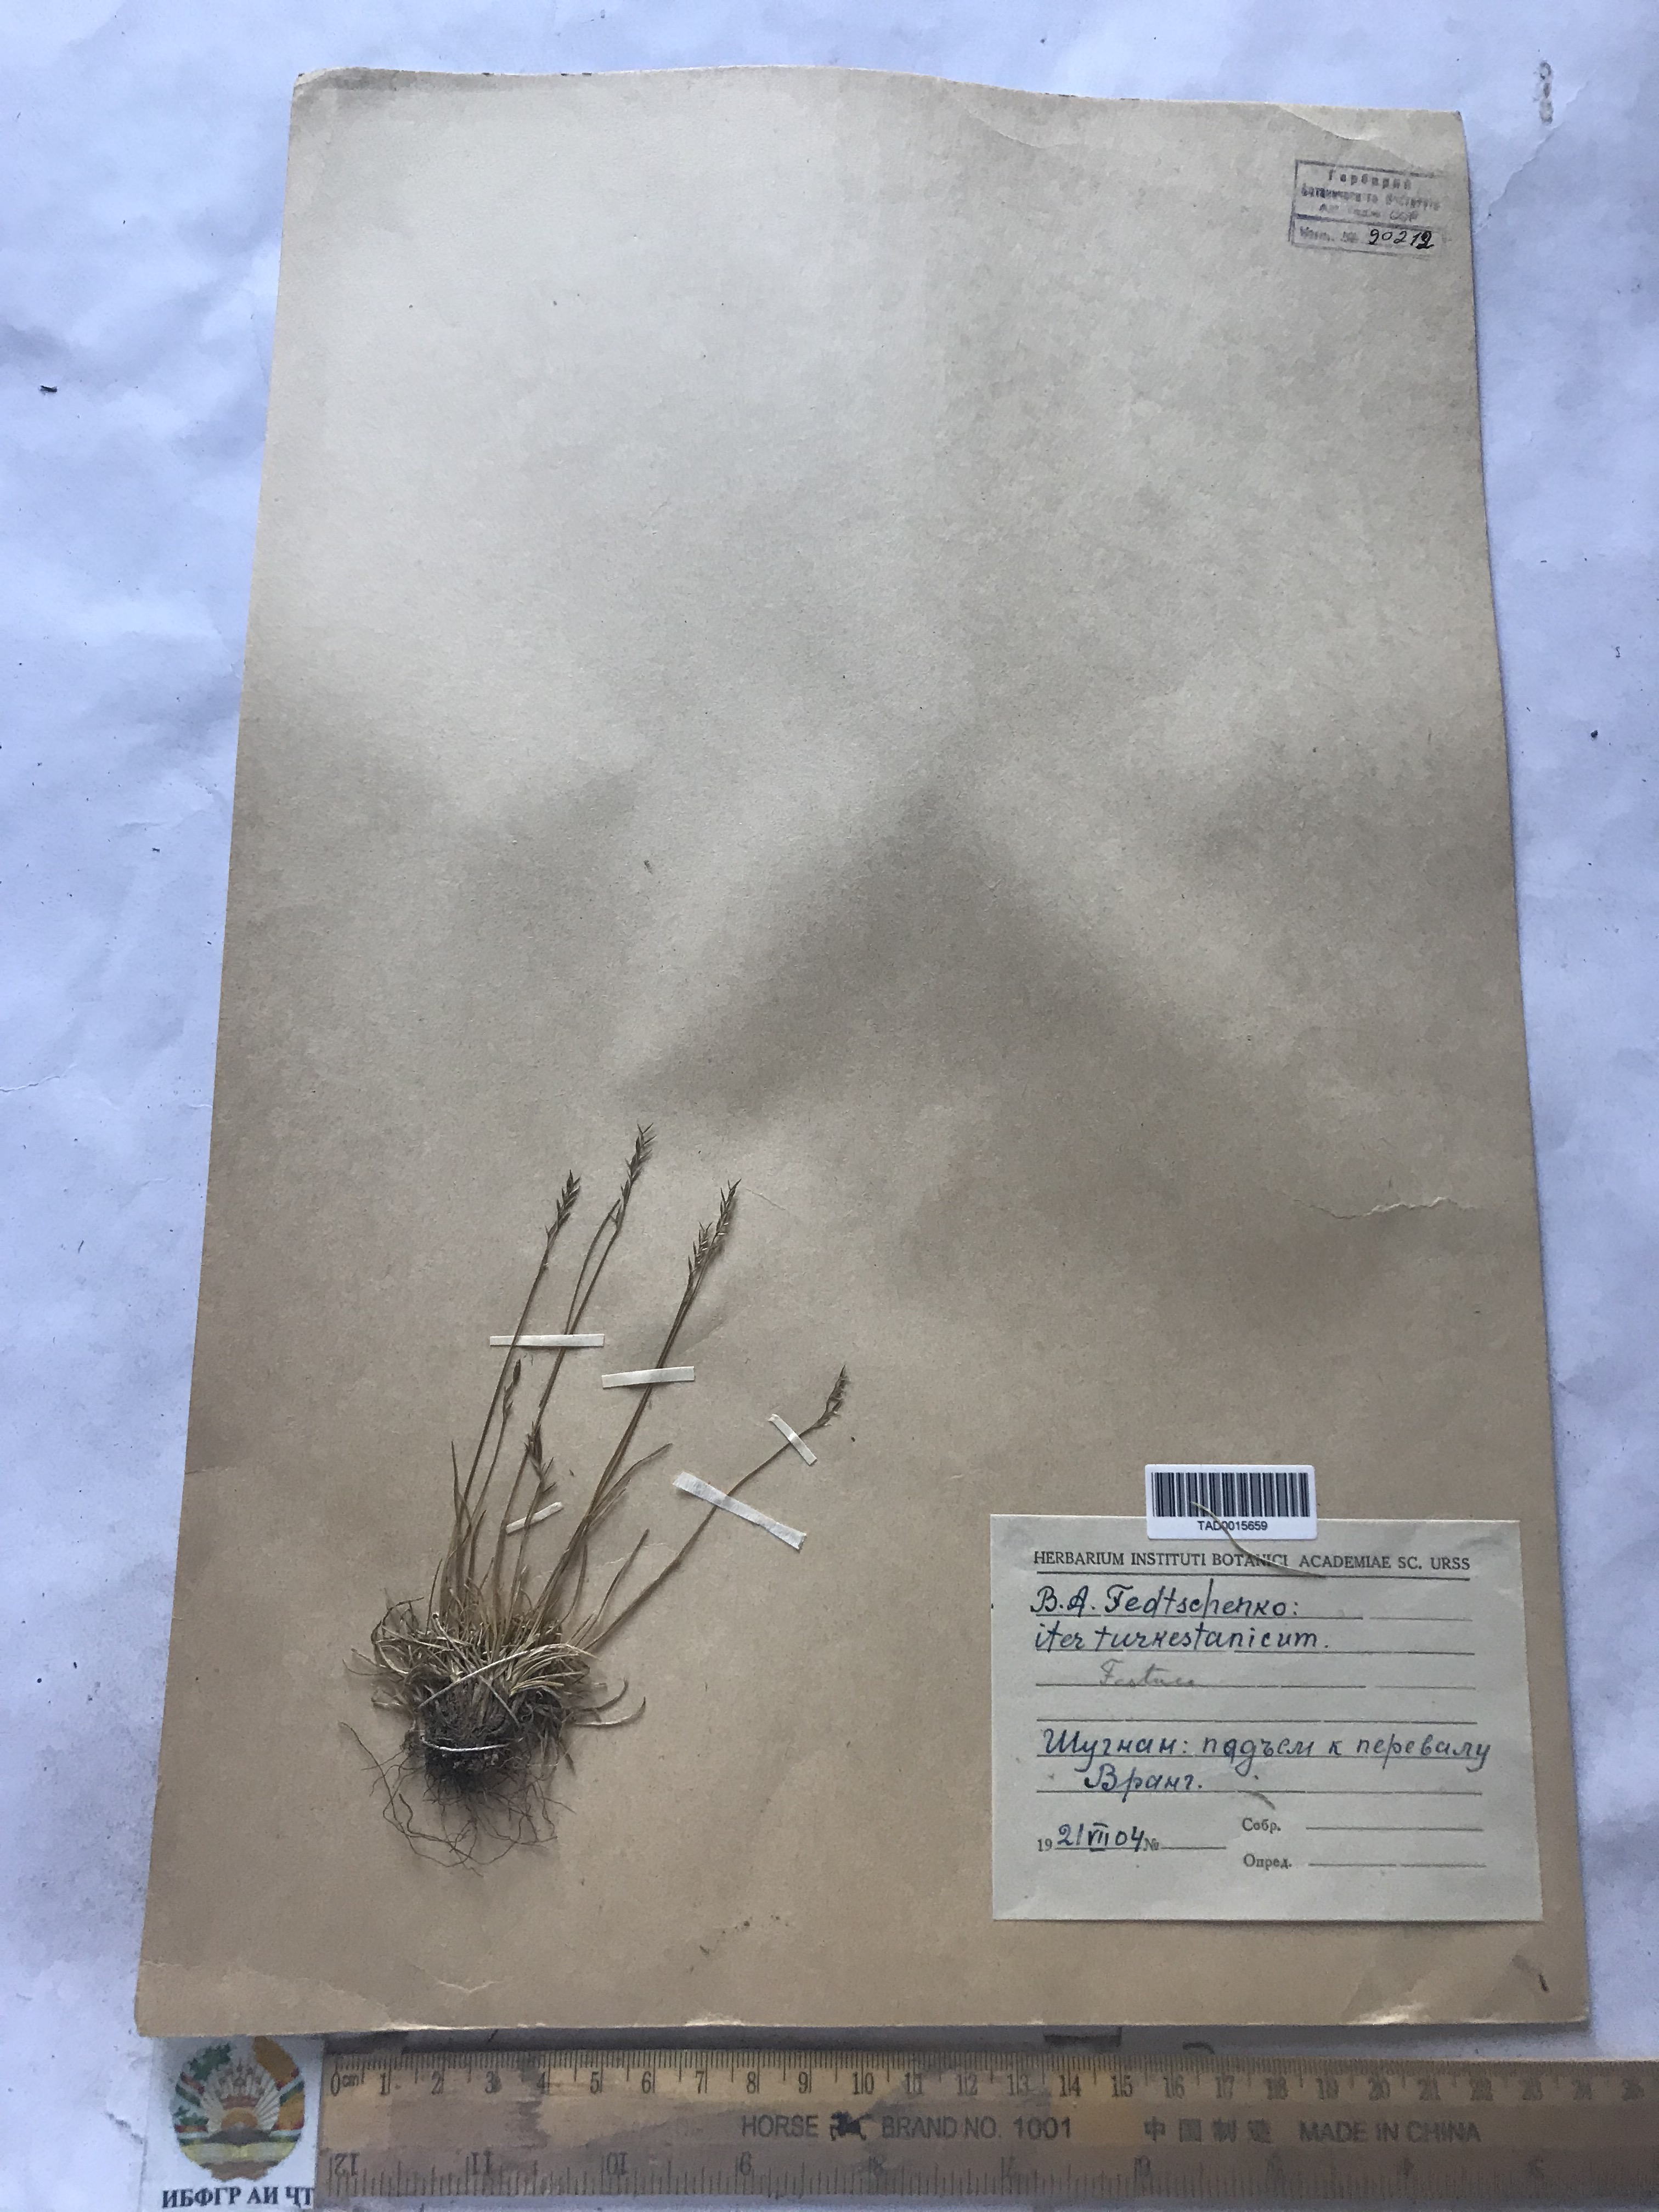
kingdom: Plantae
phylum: Tracheophyta
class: Liliopsida
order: Poales
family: Poaceae
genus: Festuca
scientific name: Festuca
